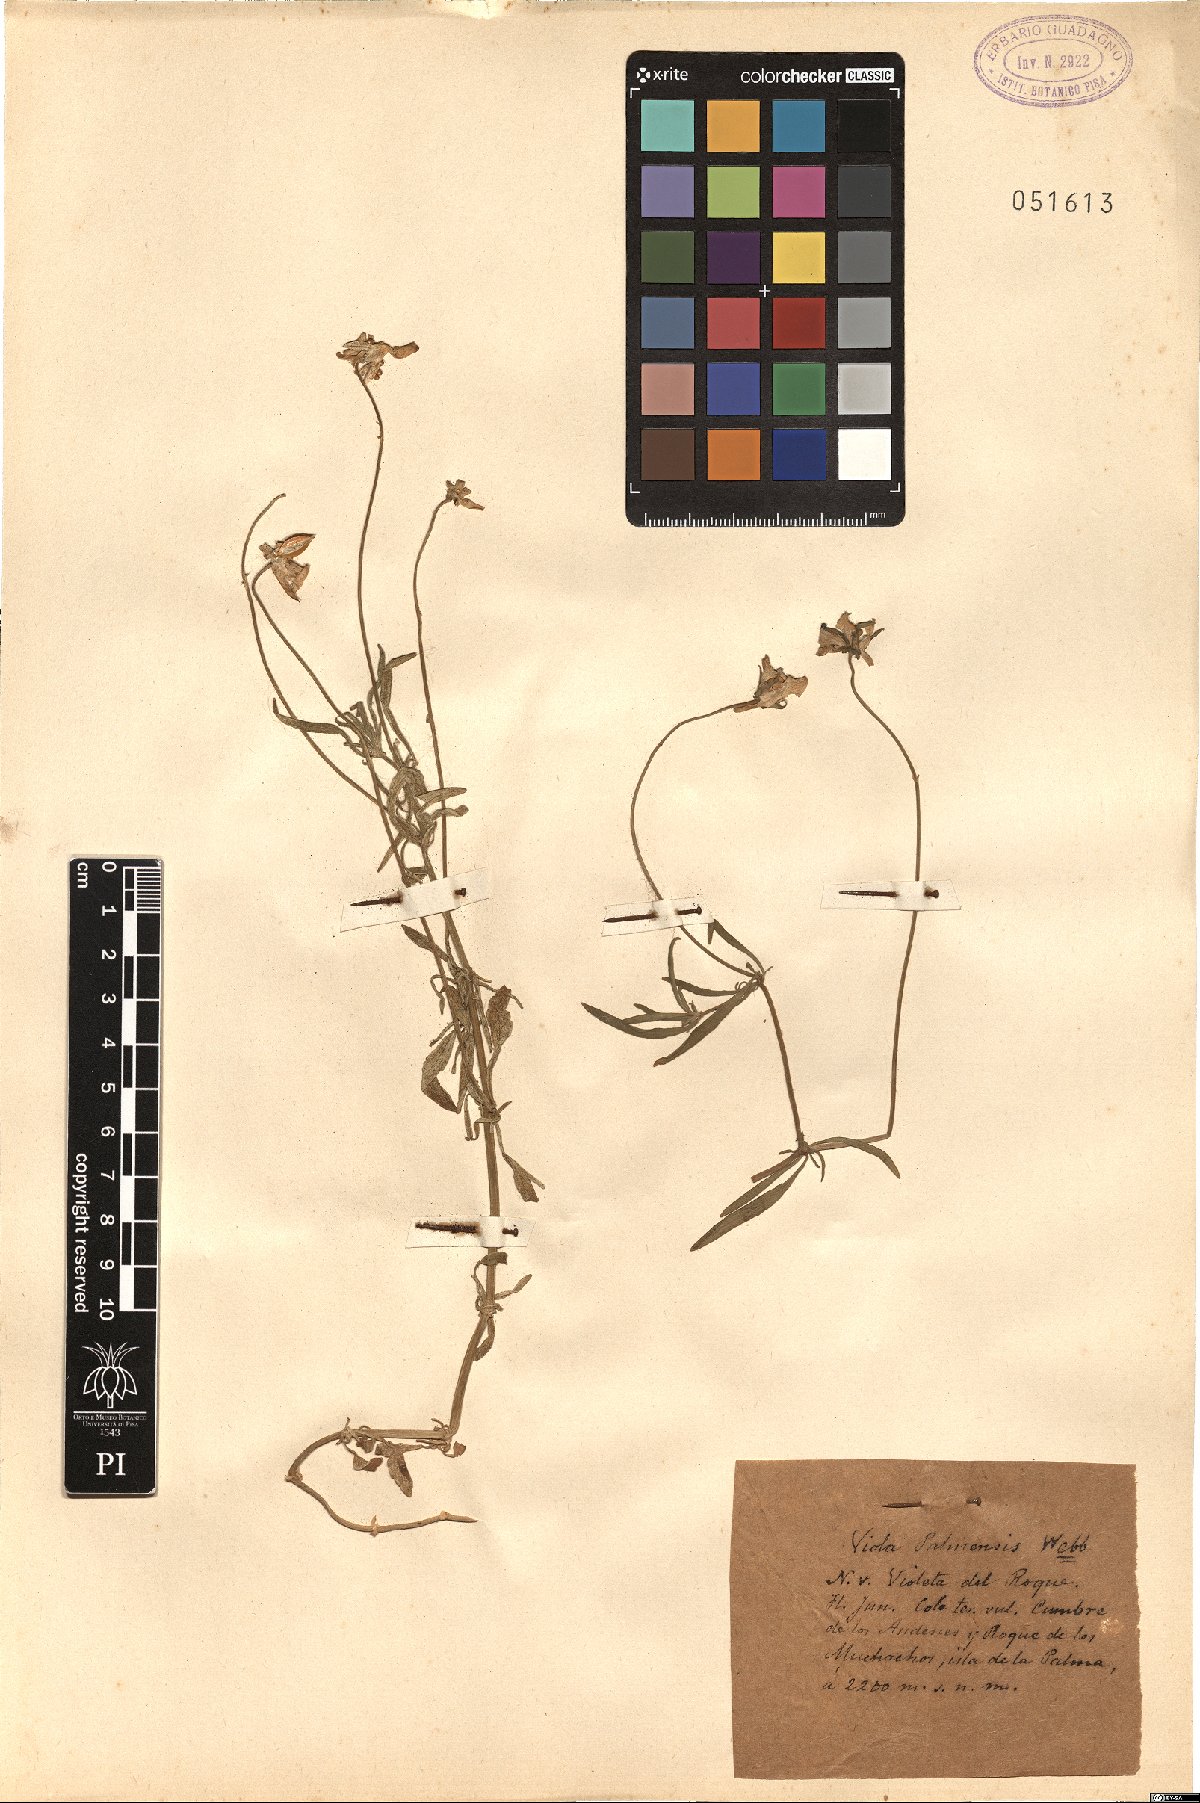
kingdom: Plantae
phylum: Tracheophyta
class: Magnoliopsida
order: Malpighiales
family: Violaceae
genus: Viola
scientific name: Viola palmensis
